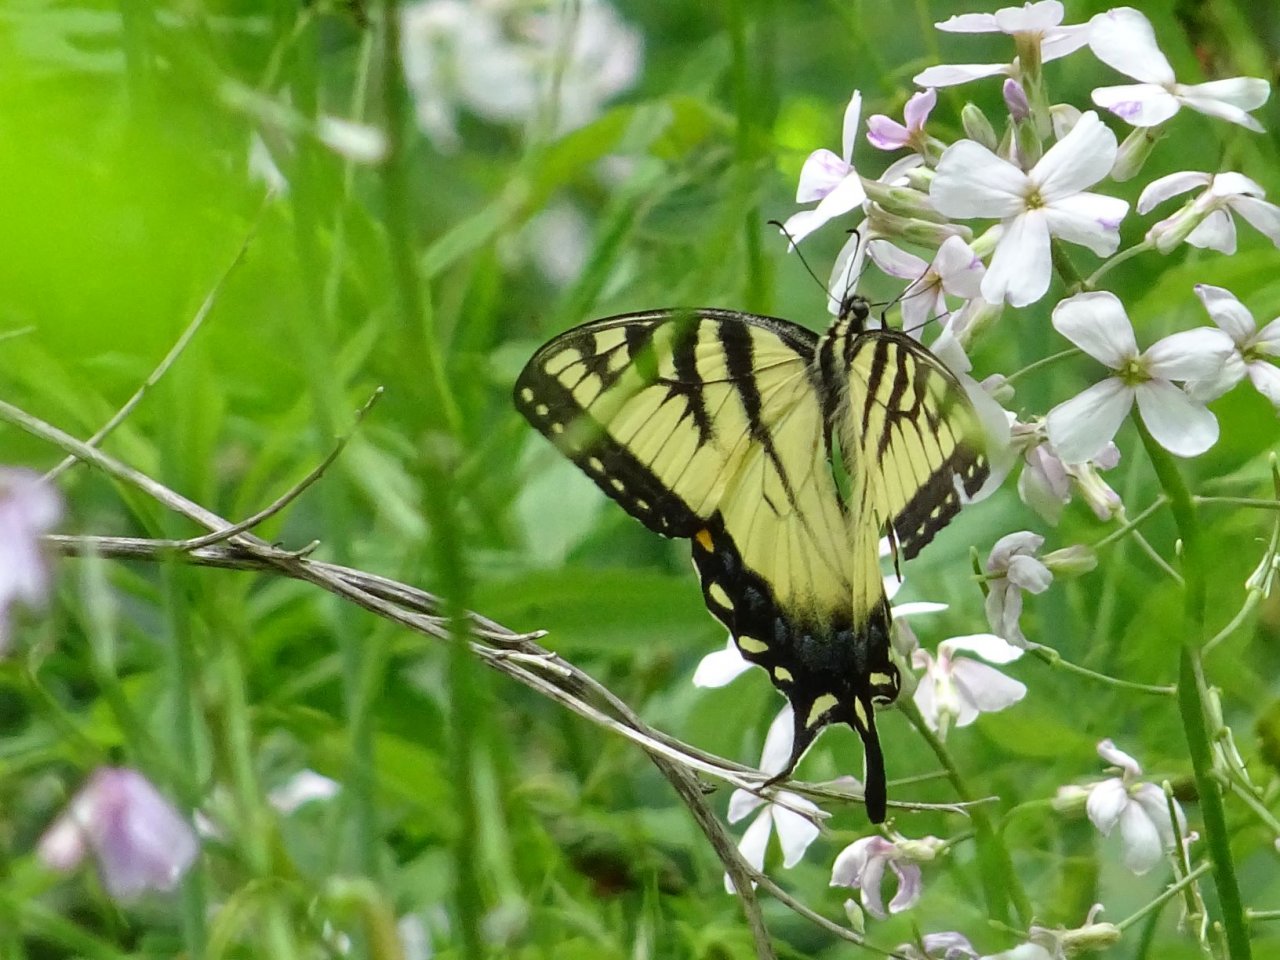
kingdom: Animalia
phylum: Arthropoda
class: Insecta
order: Lepidoptera
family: Papilionidae
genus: Pterourus
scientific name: Pterourus glaucus
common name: Eastern Tiger Swallowtail
